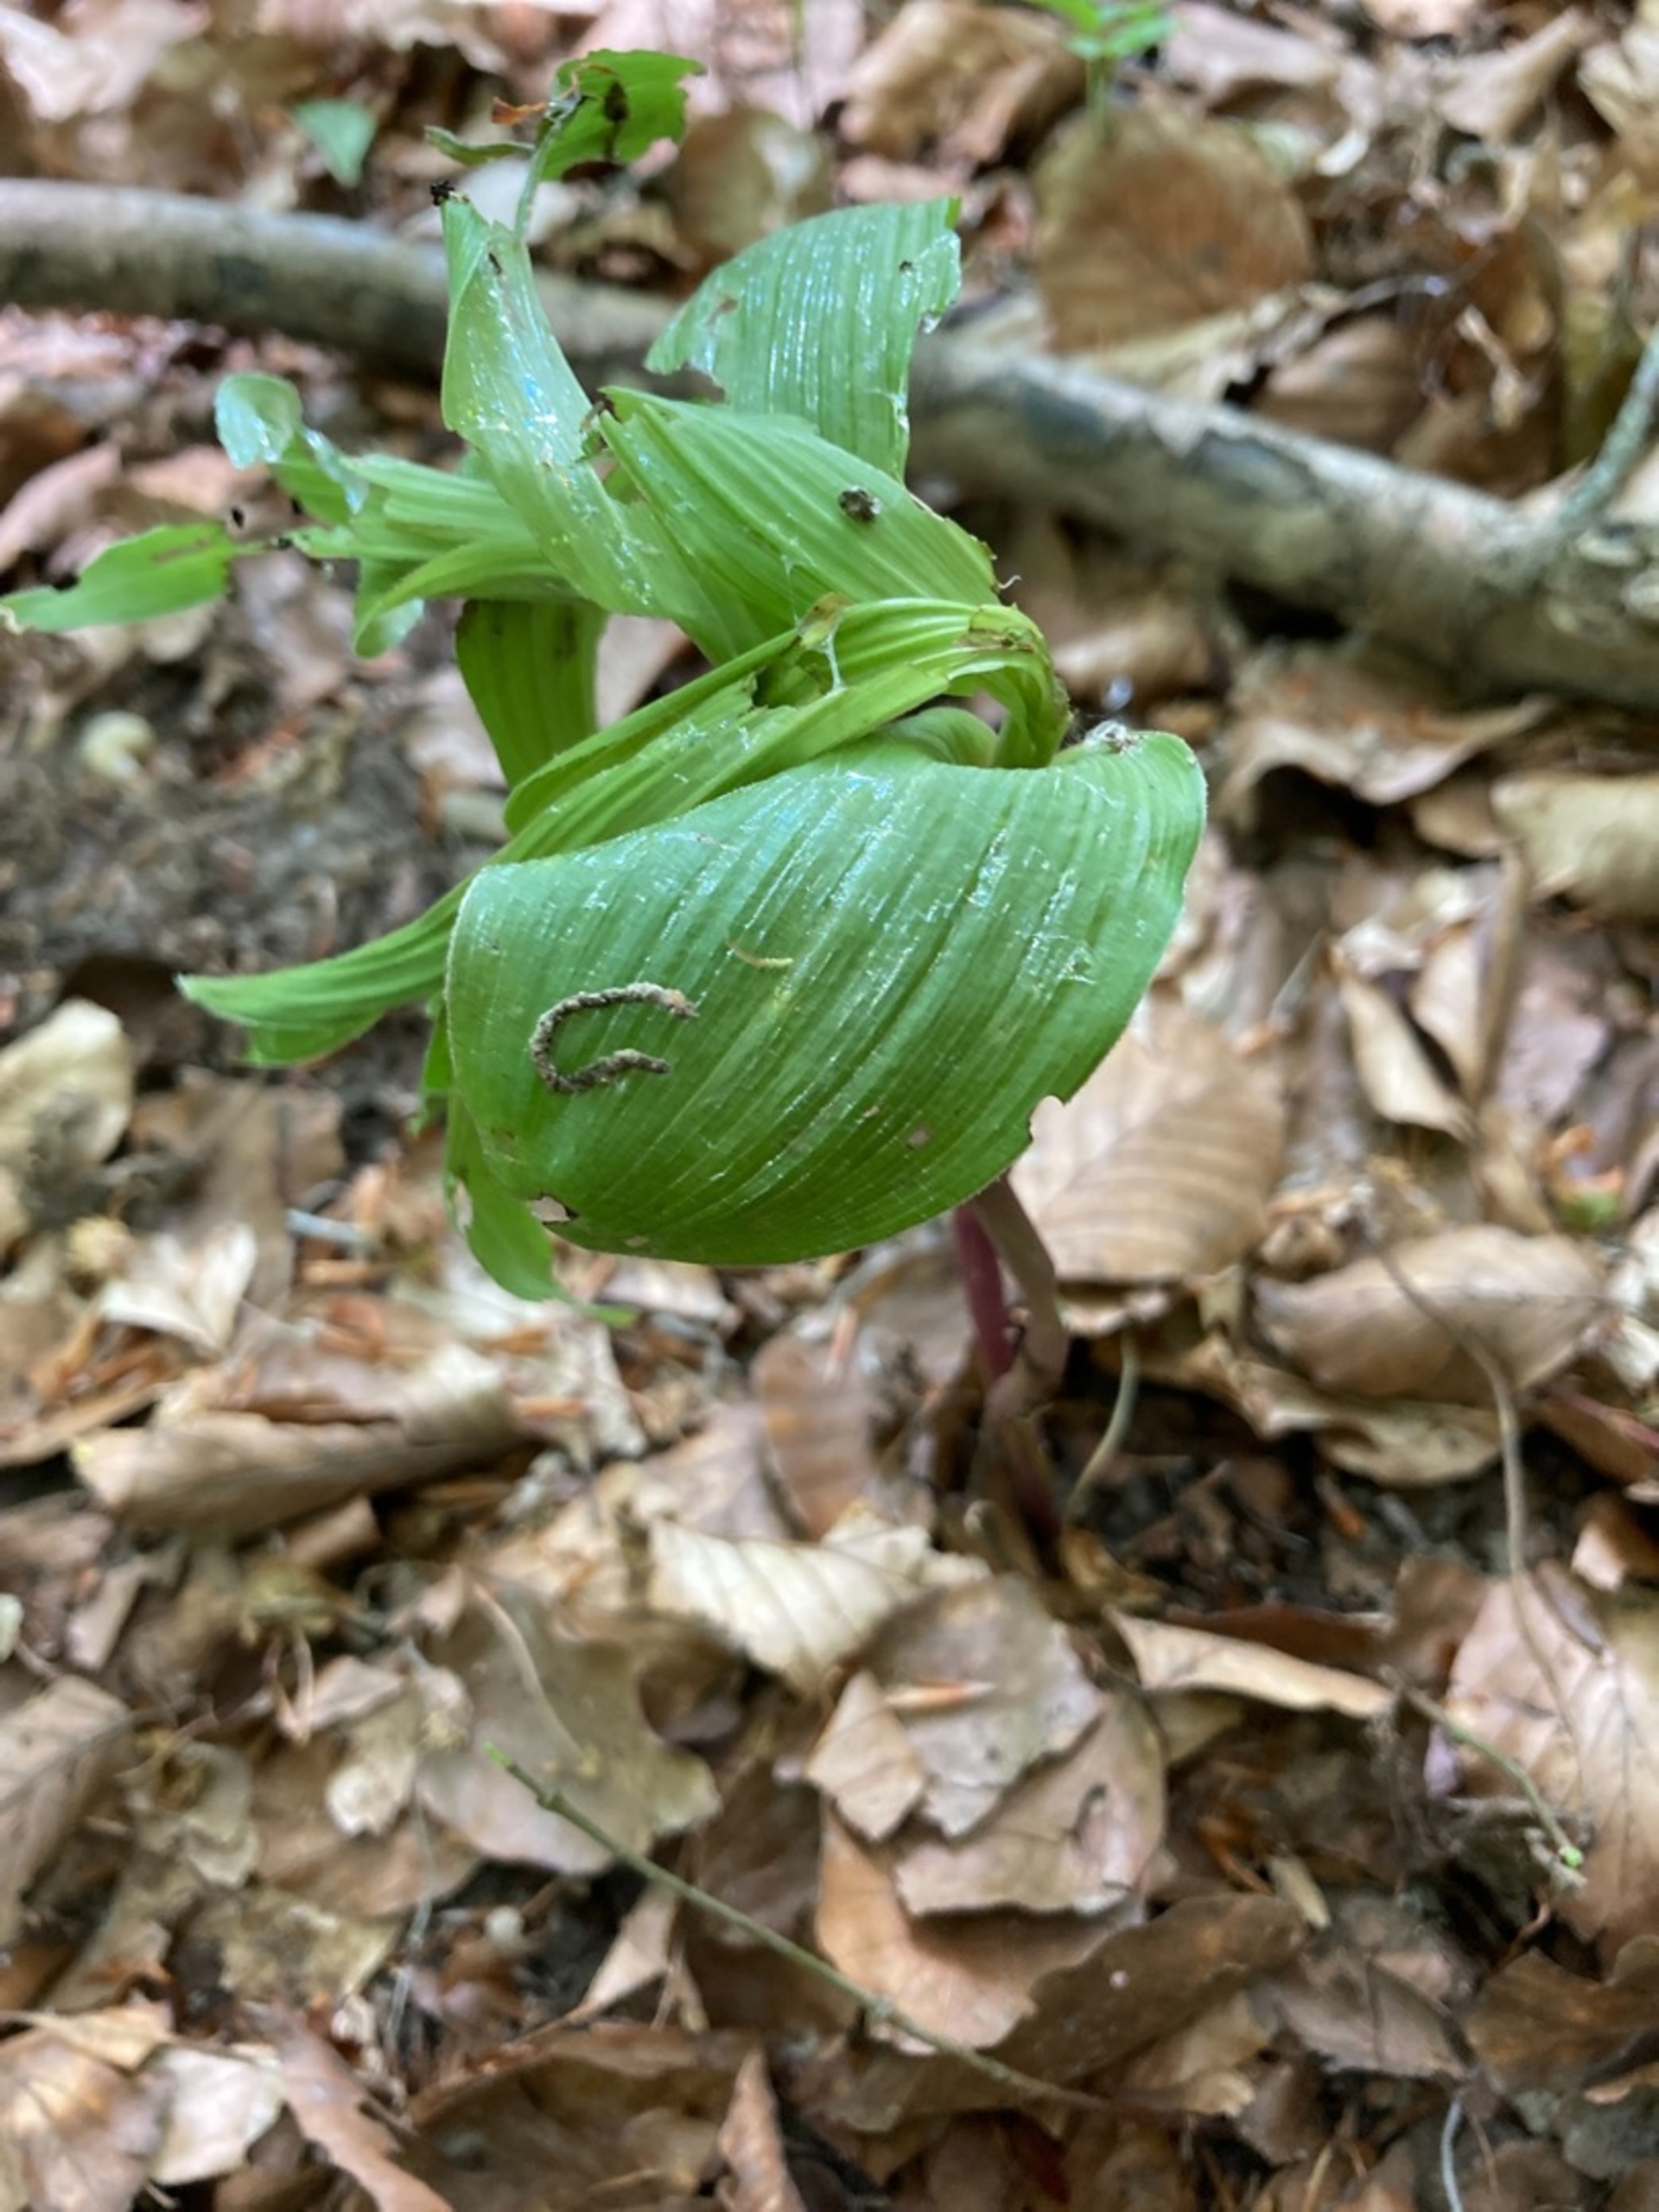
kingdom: Plantae
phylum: Tracheophyta
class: Liliopsida
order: Asparagales
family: Orchidaceae
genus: Epipactis
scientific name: Epipactis helleborine
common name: Skov-hullæbe
